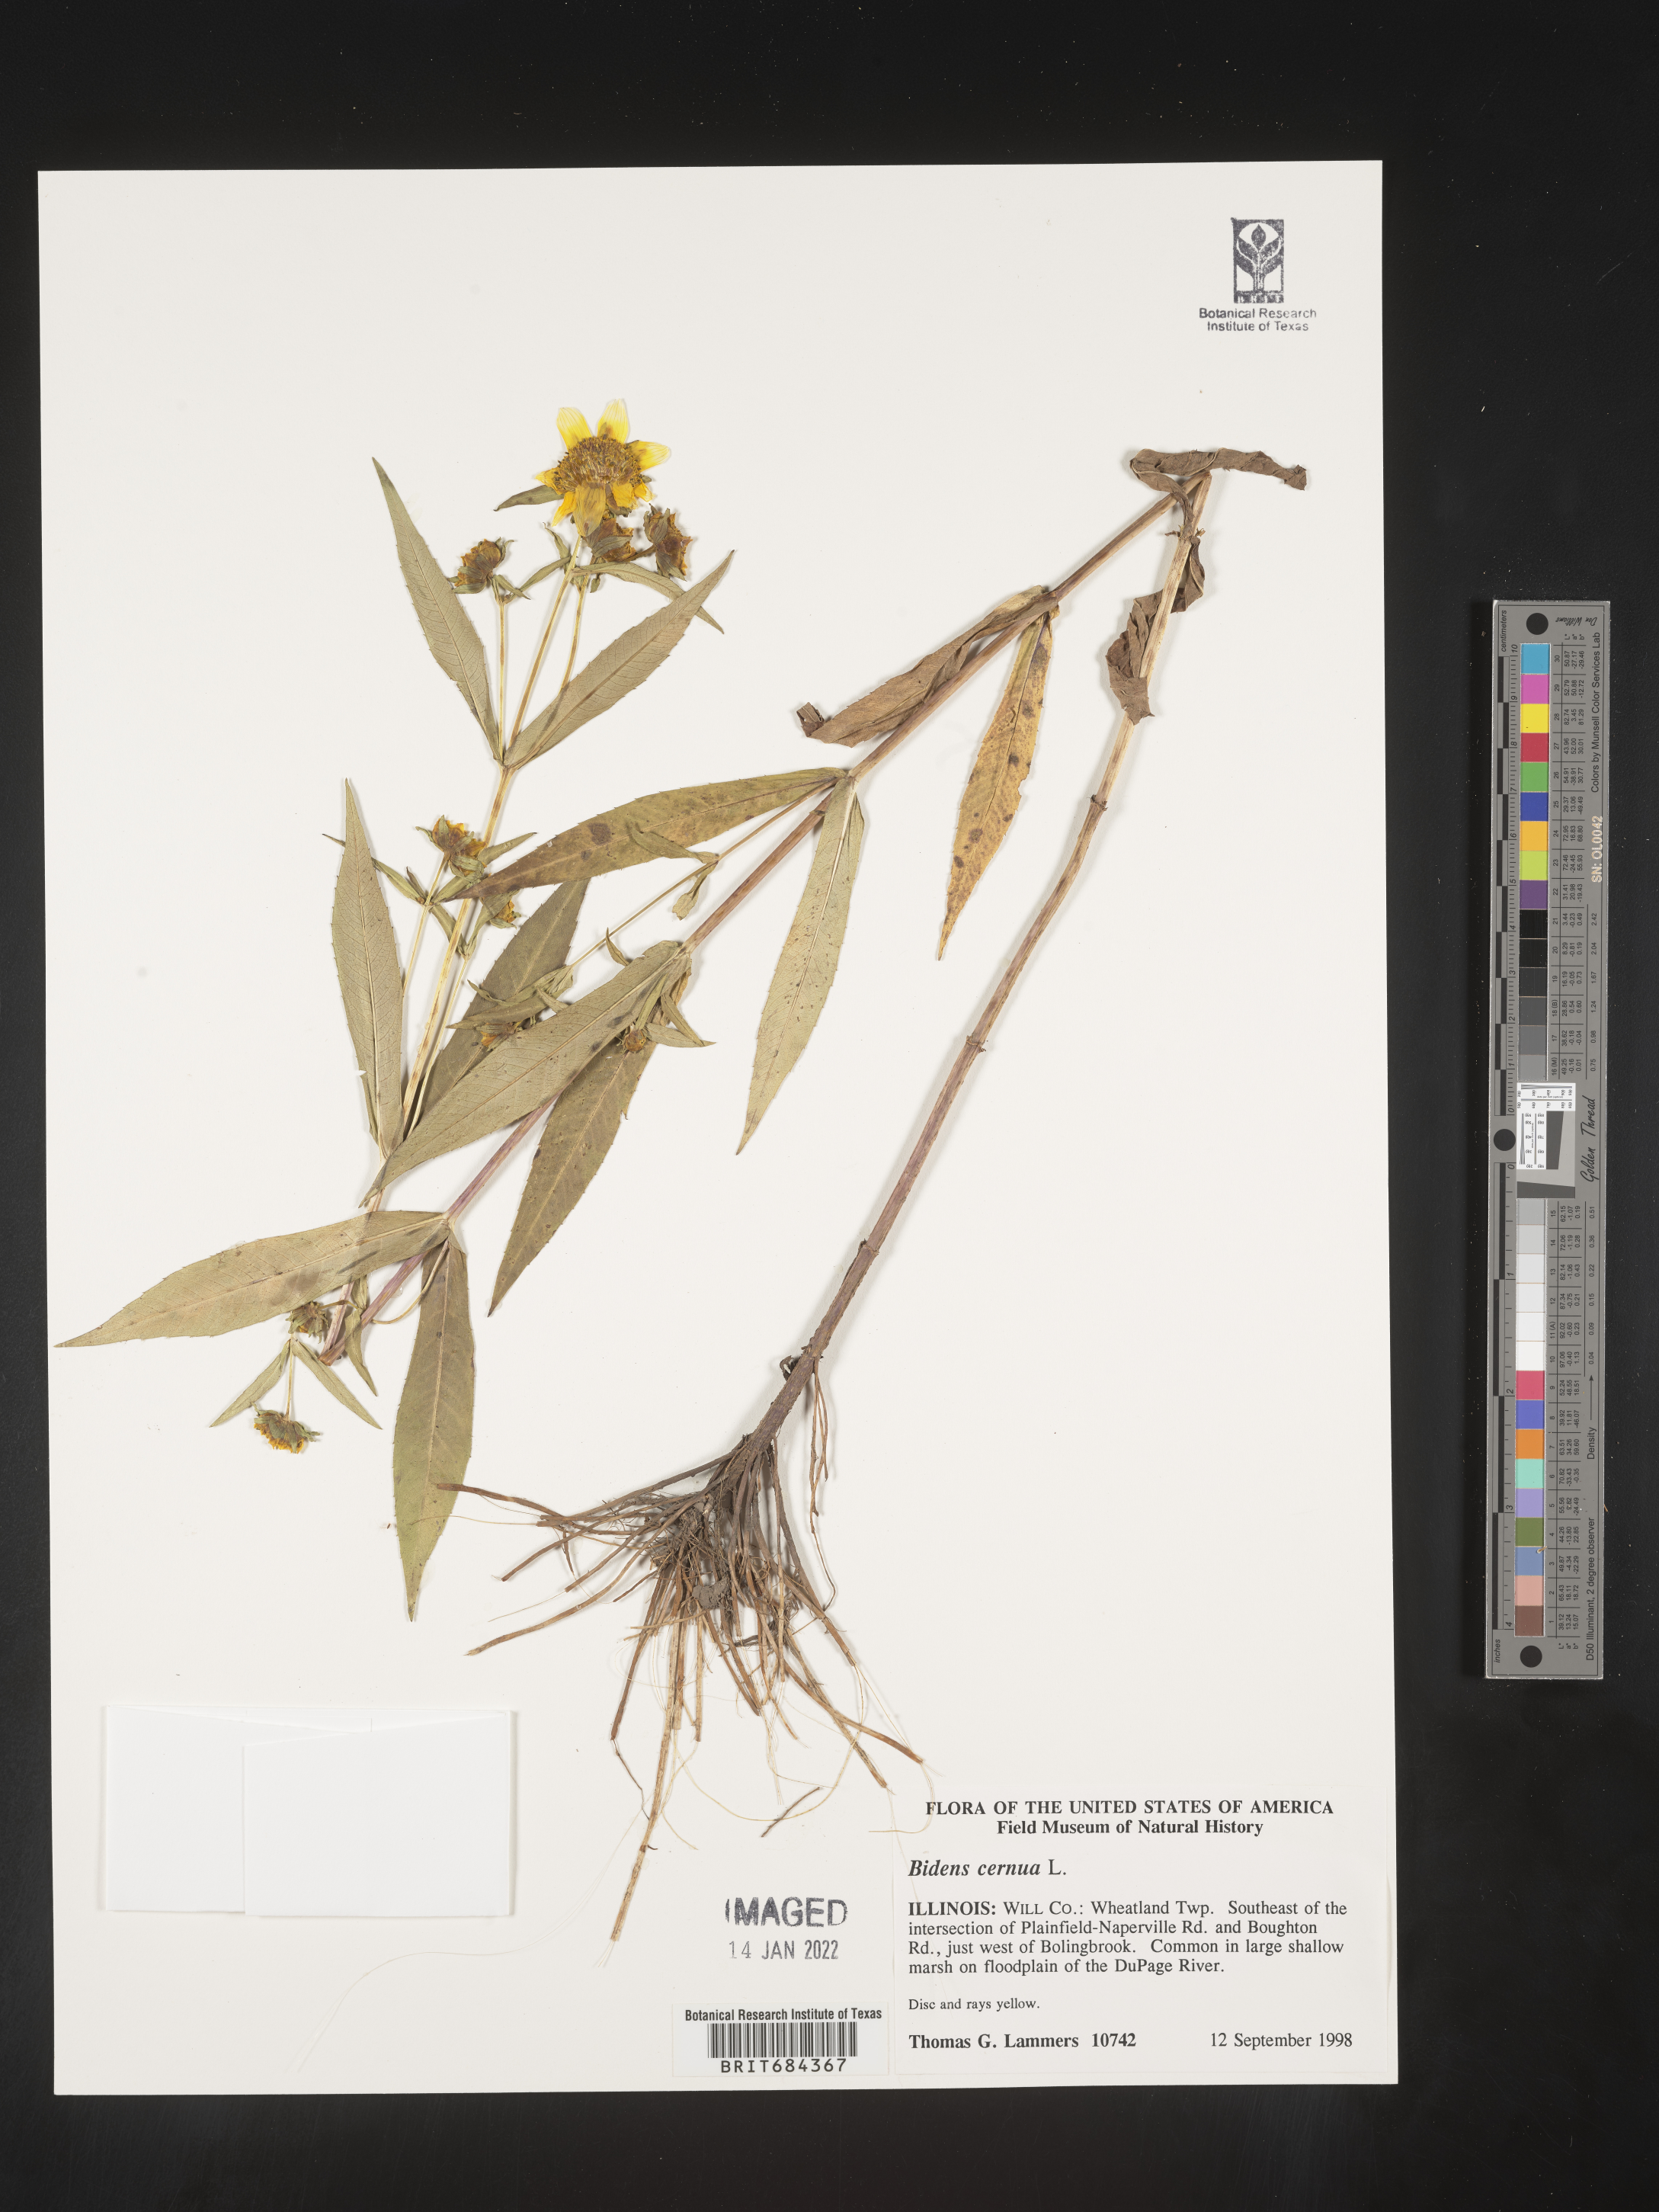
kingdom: Plantae
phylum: Tracheophyta
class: Magnoliopsida
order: Asterales
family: Asteraceae
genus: Bidens
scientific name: Bidens cernua
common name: Nodding bur-marigold
